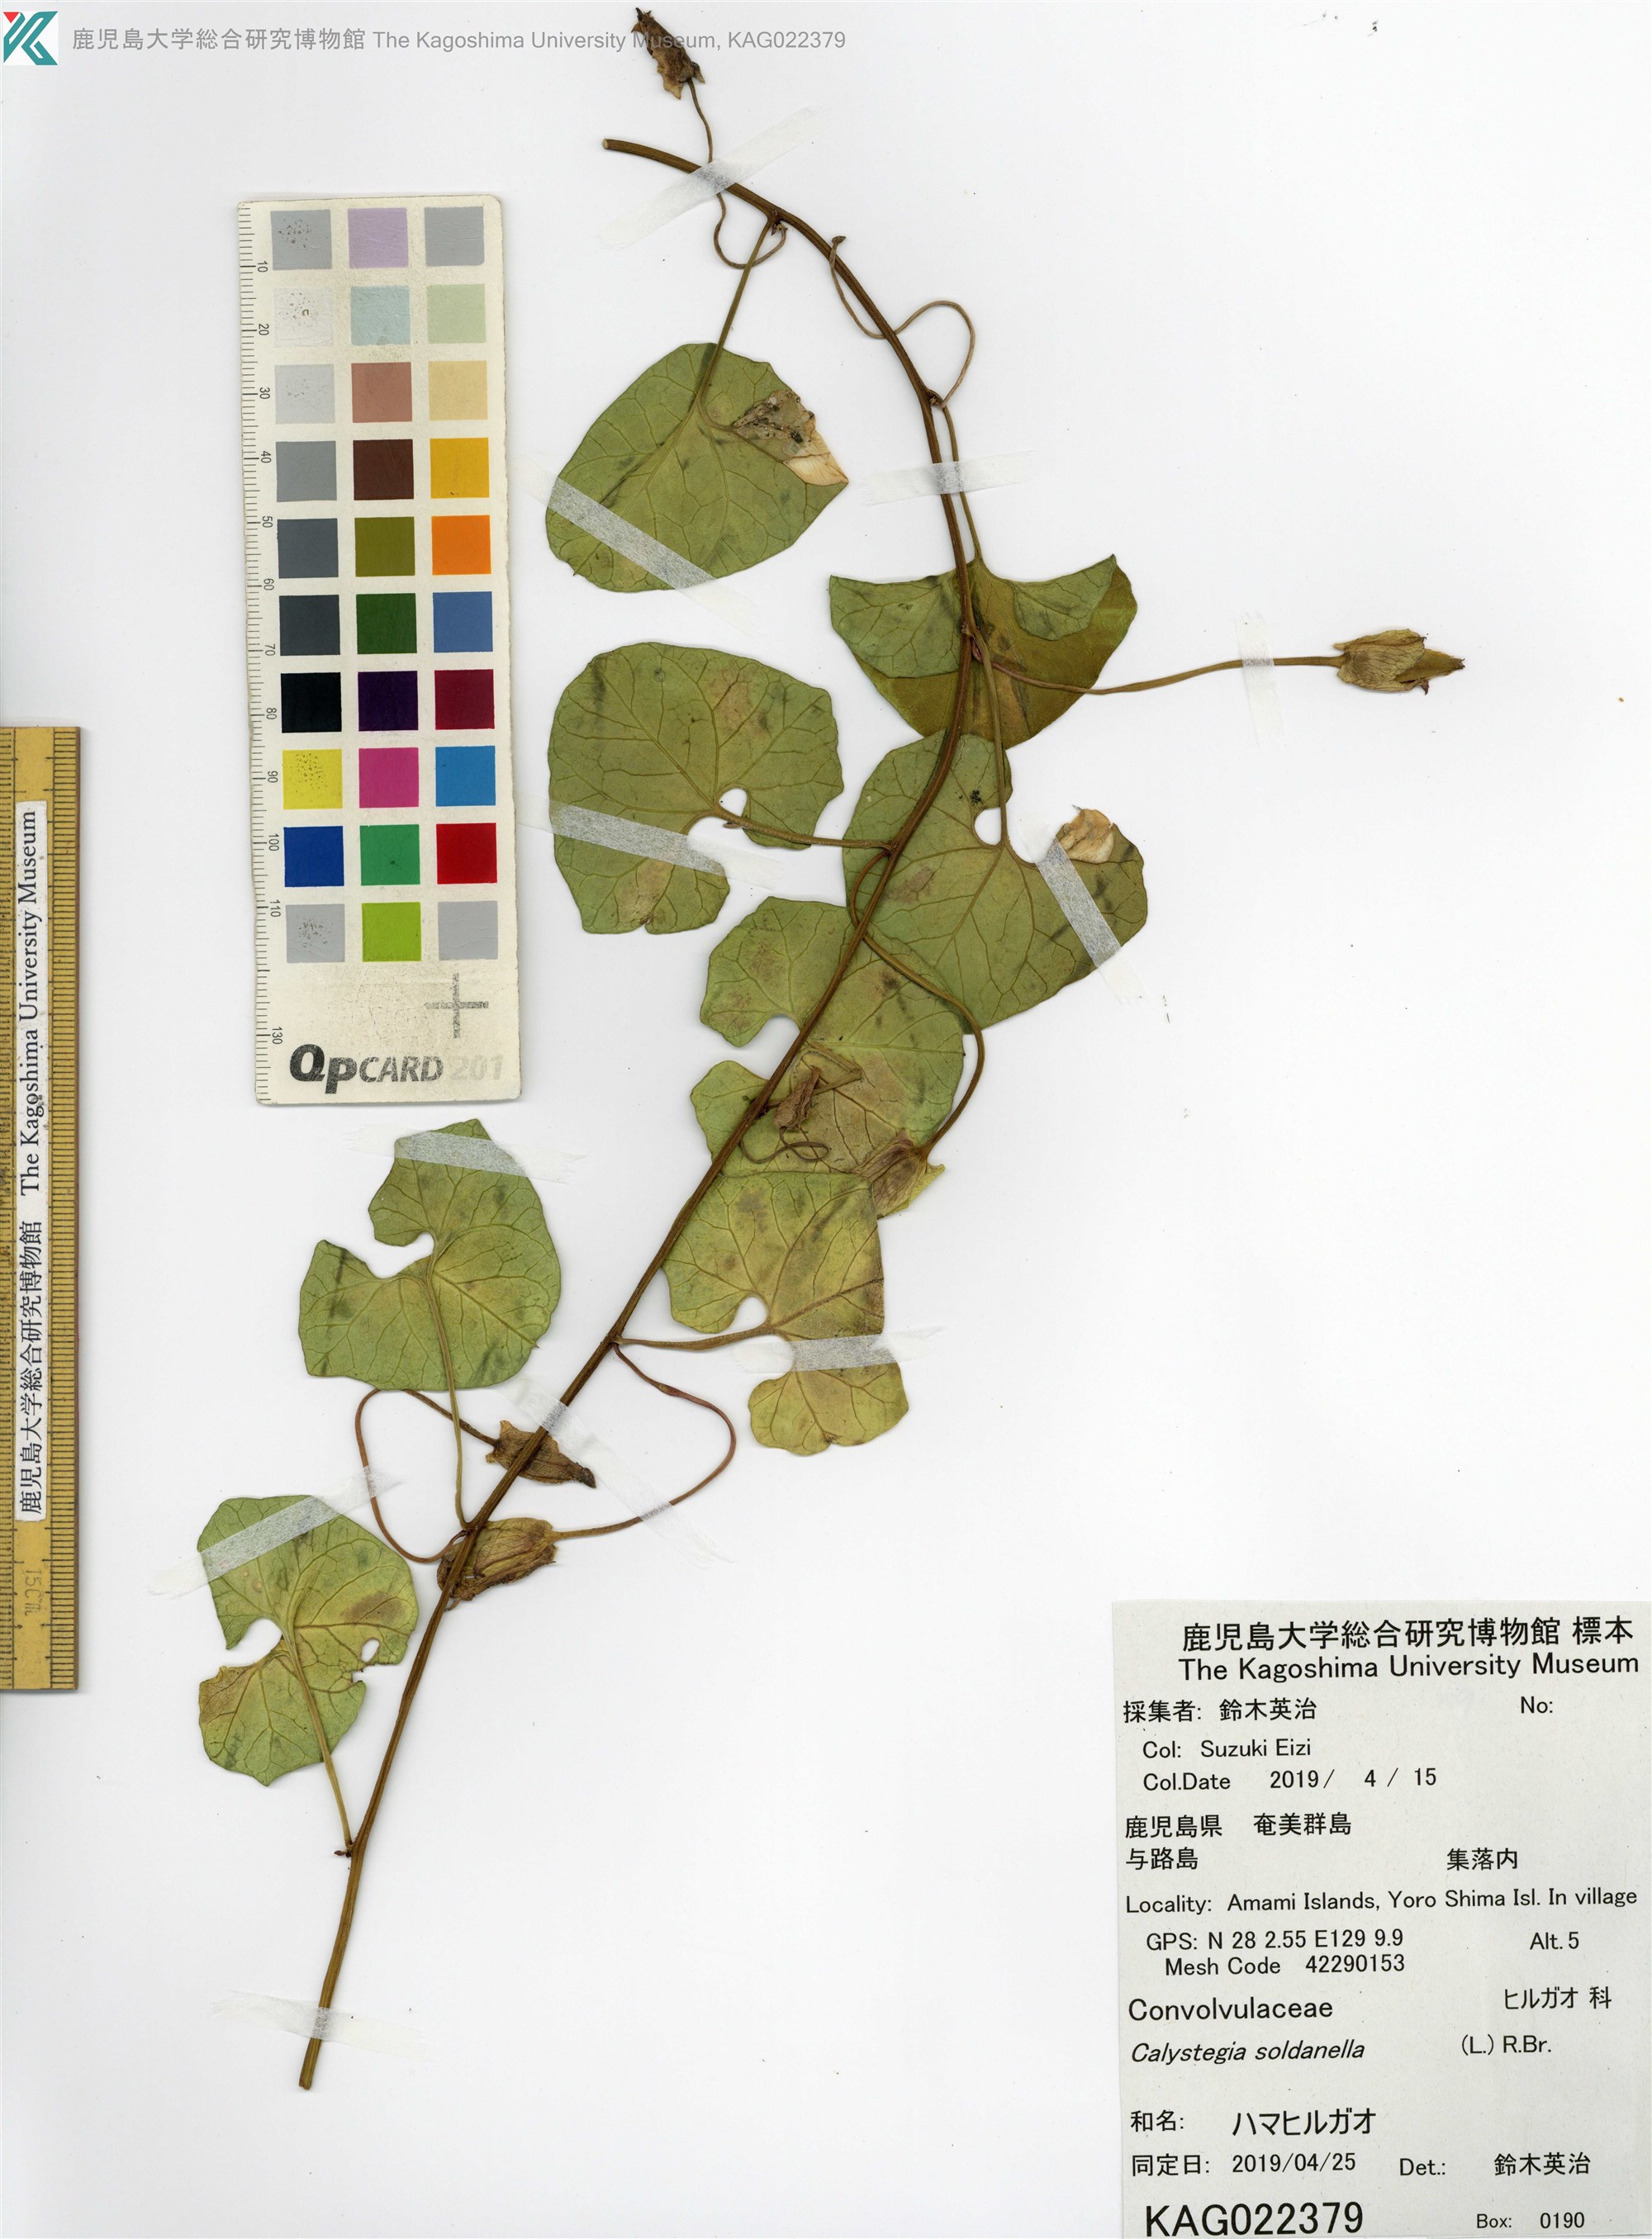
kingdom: Plantae
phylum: Tracheophyta
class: Magnoliopsida
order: Solanales
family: Convolvulaceae
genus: Calystegia
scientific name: Calystegia soldanella
